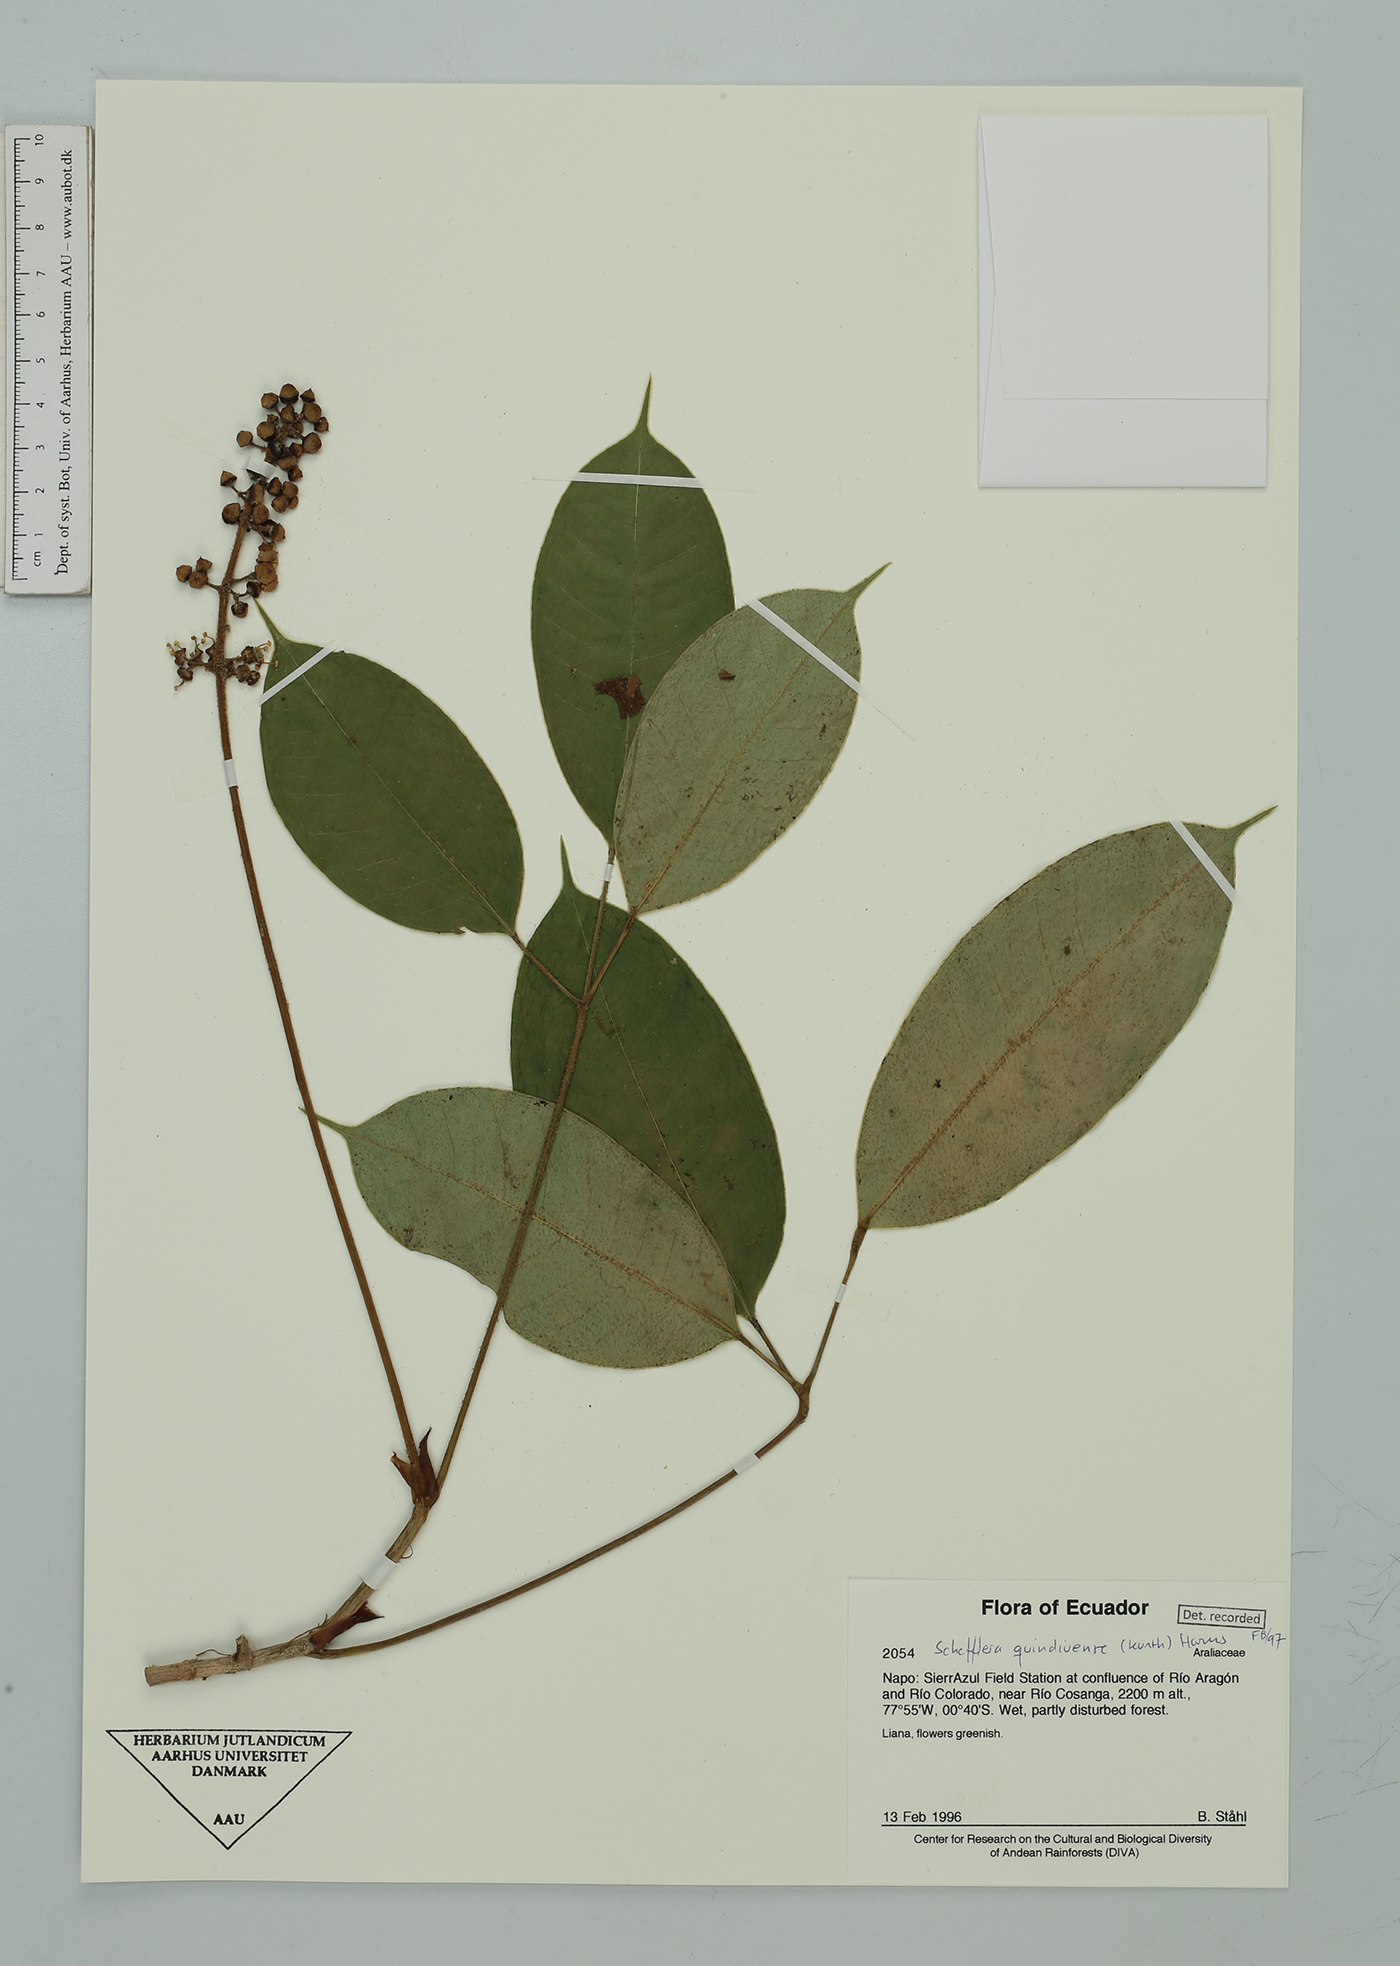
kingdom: Plantae
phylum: Tracheophyta
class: Magnoliopsida
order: Apiales
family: Araliaceae
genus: Sciodaphyllum
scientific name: Sciodaphyllum
